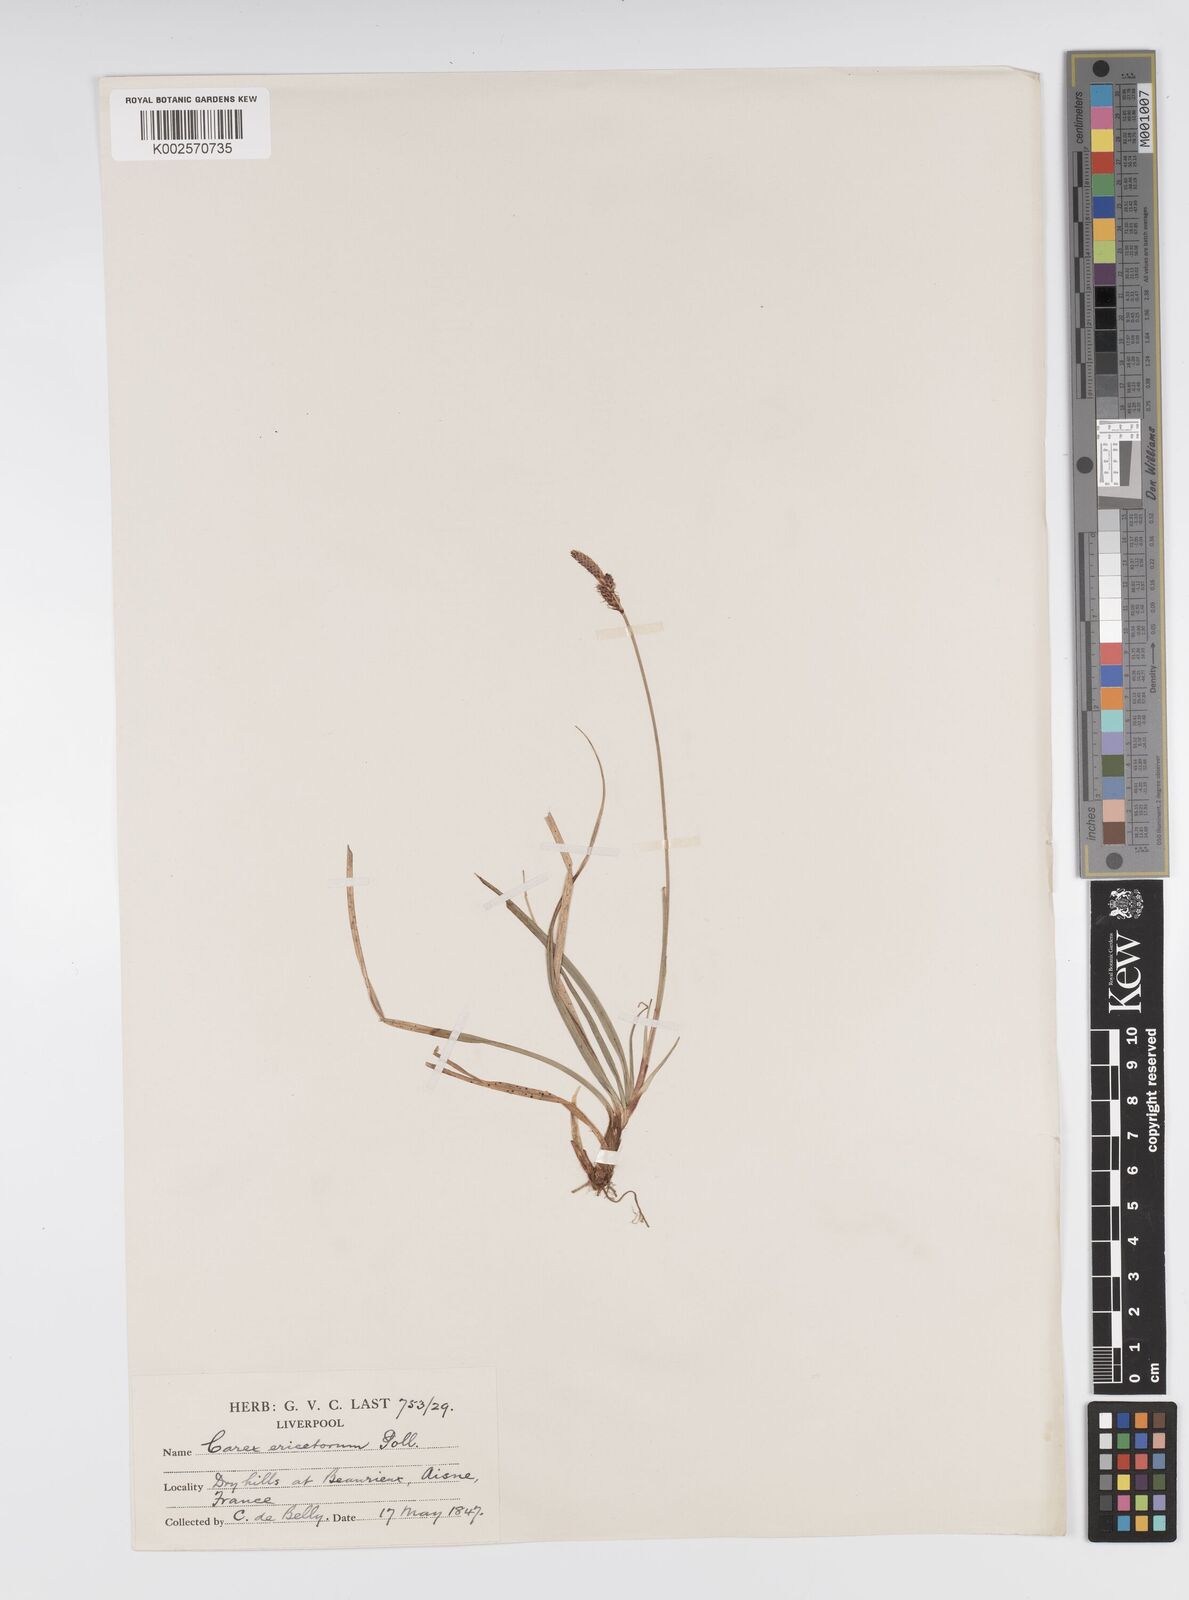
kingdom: Plantae
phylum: Tracheophyta
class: Liliopsida
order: Poales
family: Cyperaceae
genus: Carex
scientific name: Carex ericetorum
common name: Rare spring-sedge
